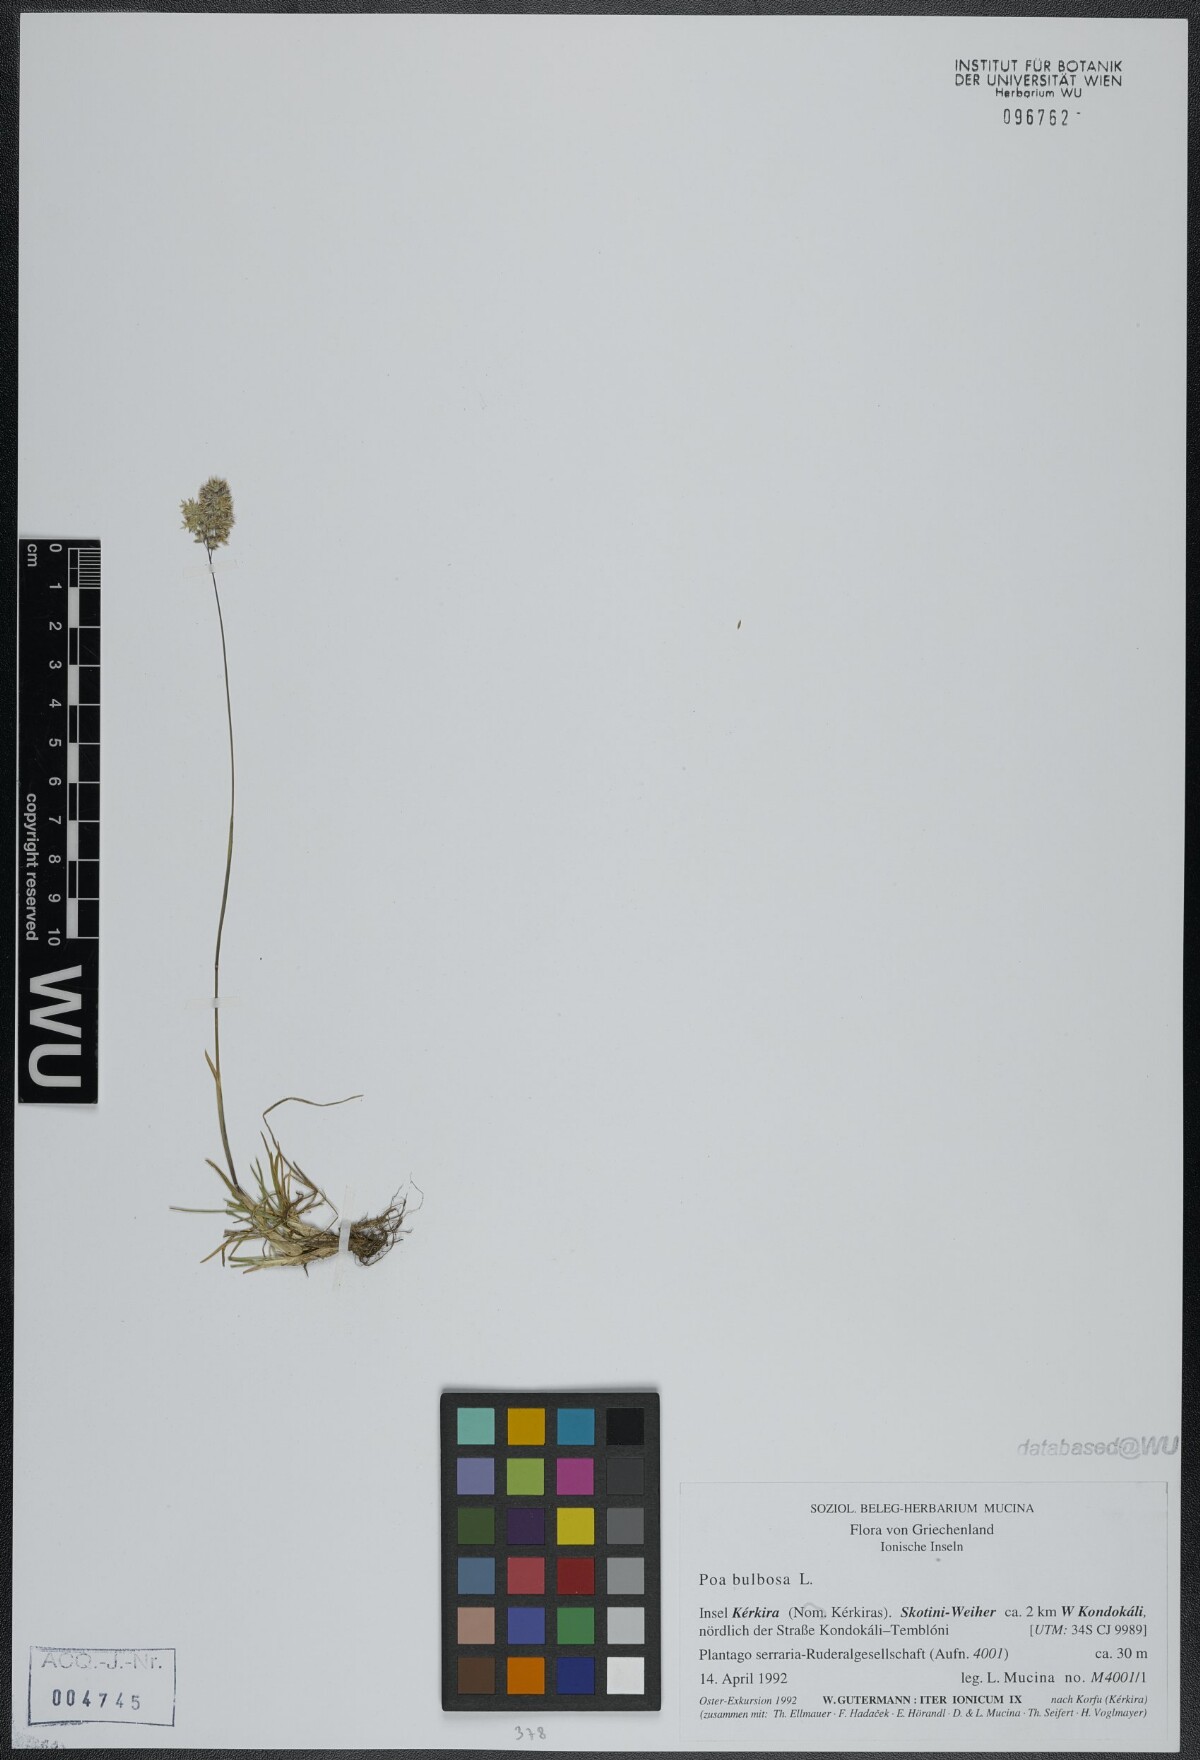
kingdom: Plantae
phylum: Tracheophyta
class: Liliopsida
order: Poales
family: Poaceae
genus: Poa
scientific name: Poa bulbosa
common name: Bulbous bluegrass
